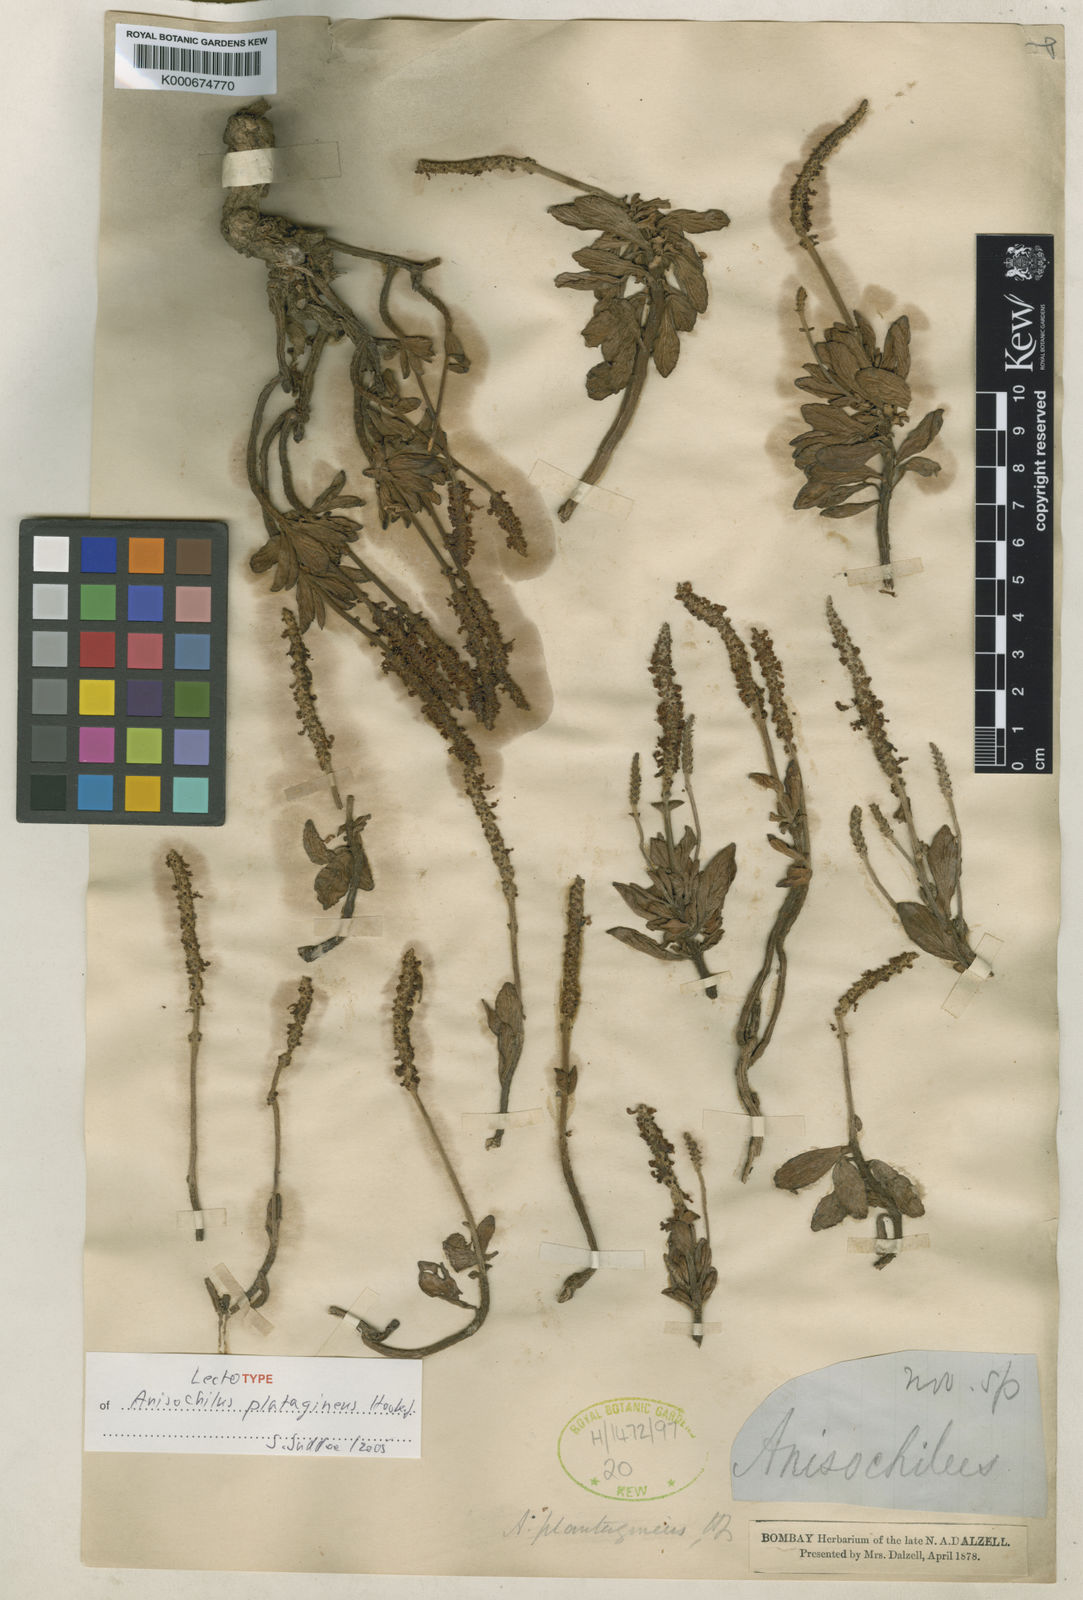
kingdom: Plantae
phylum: Tracheophyta
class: Magnoliopsida
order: Lamiales
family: Lamiaceae
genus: Coleus
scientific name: Coleus plantagineus
